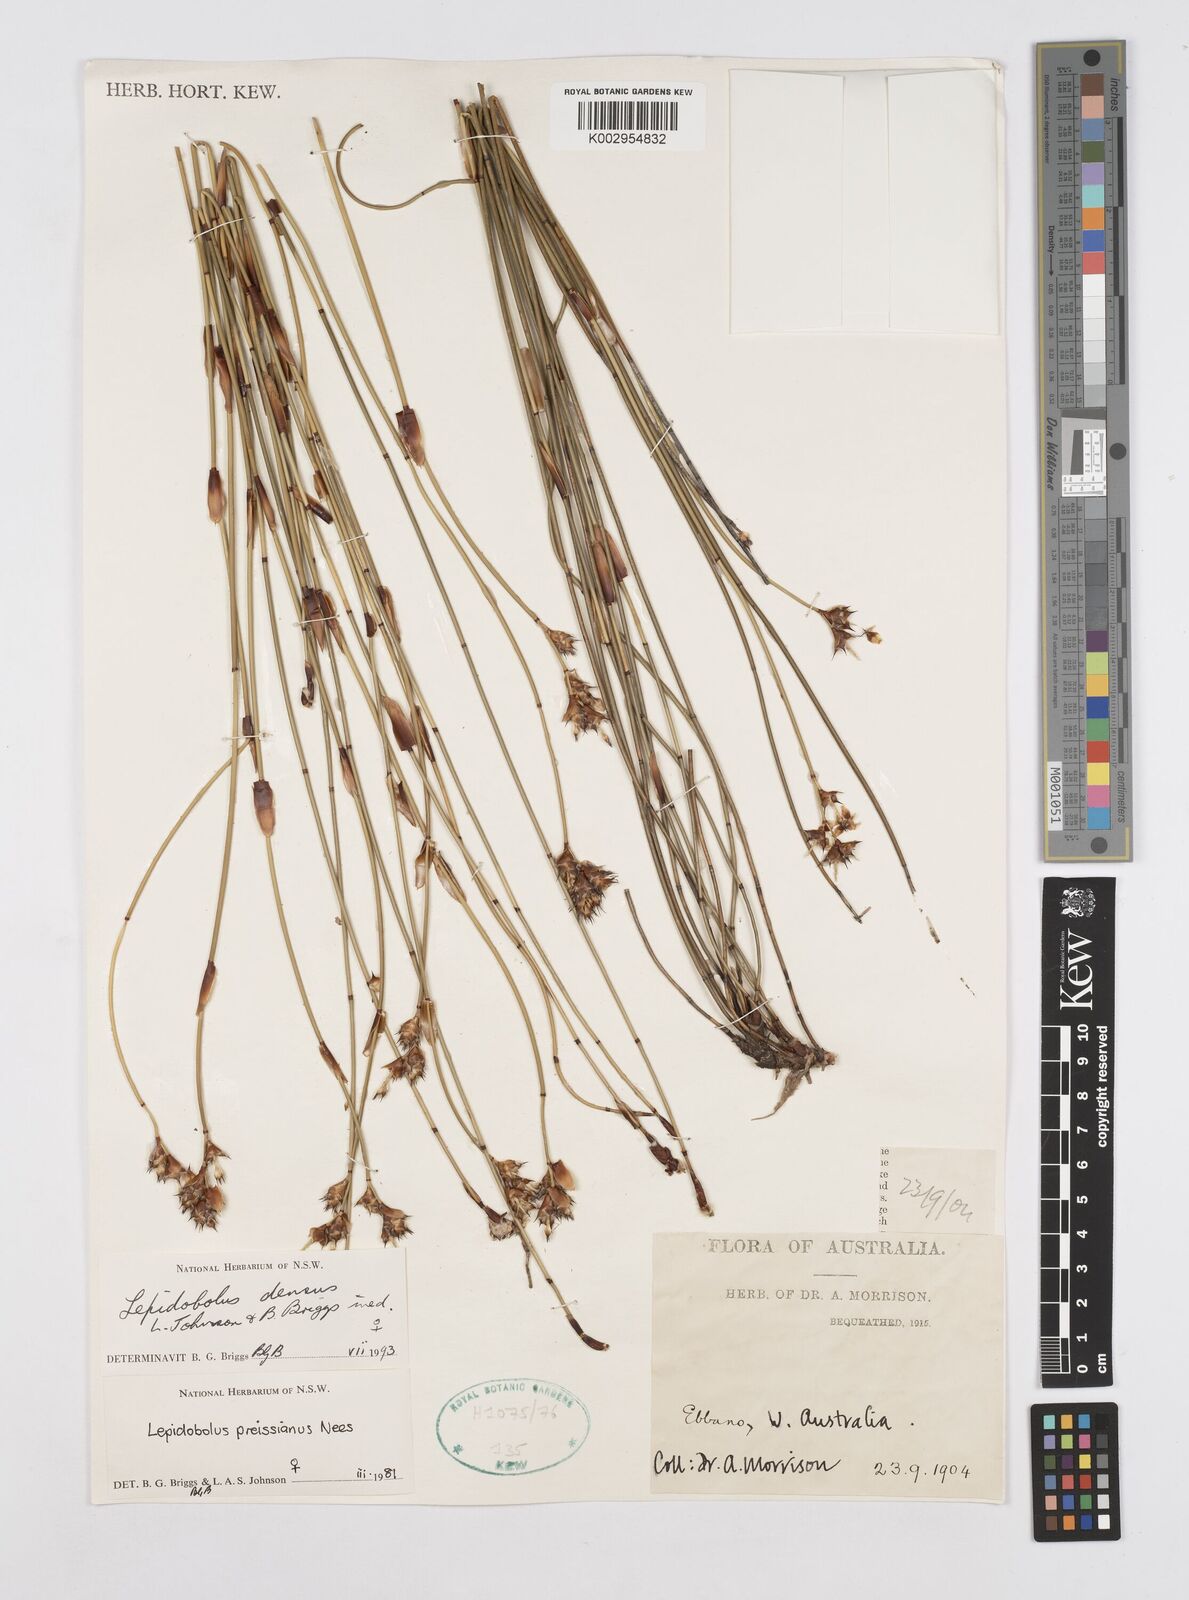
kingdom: Plantae
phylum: Tracheophyta
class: Liliopsida
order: Poales
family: Restionaceae
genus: Lepidobolus
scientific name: Lepidobolus densus
